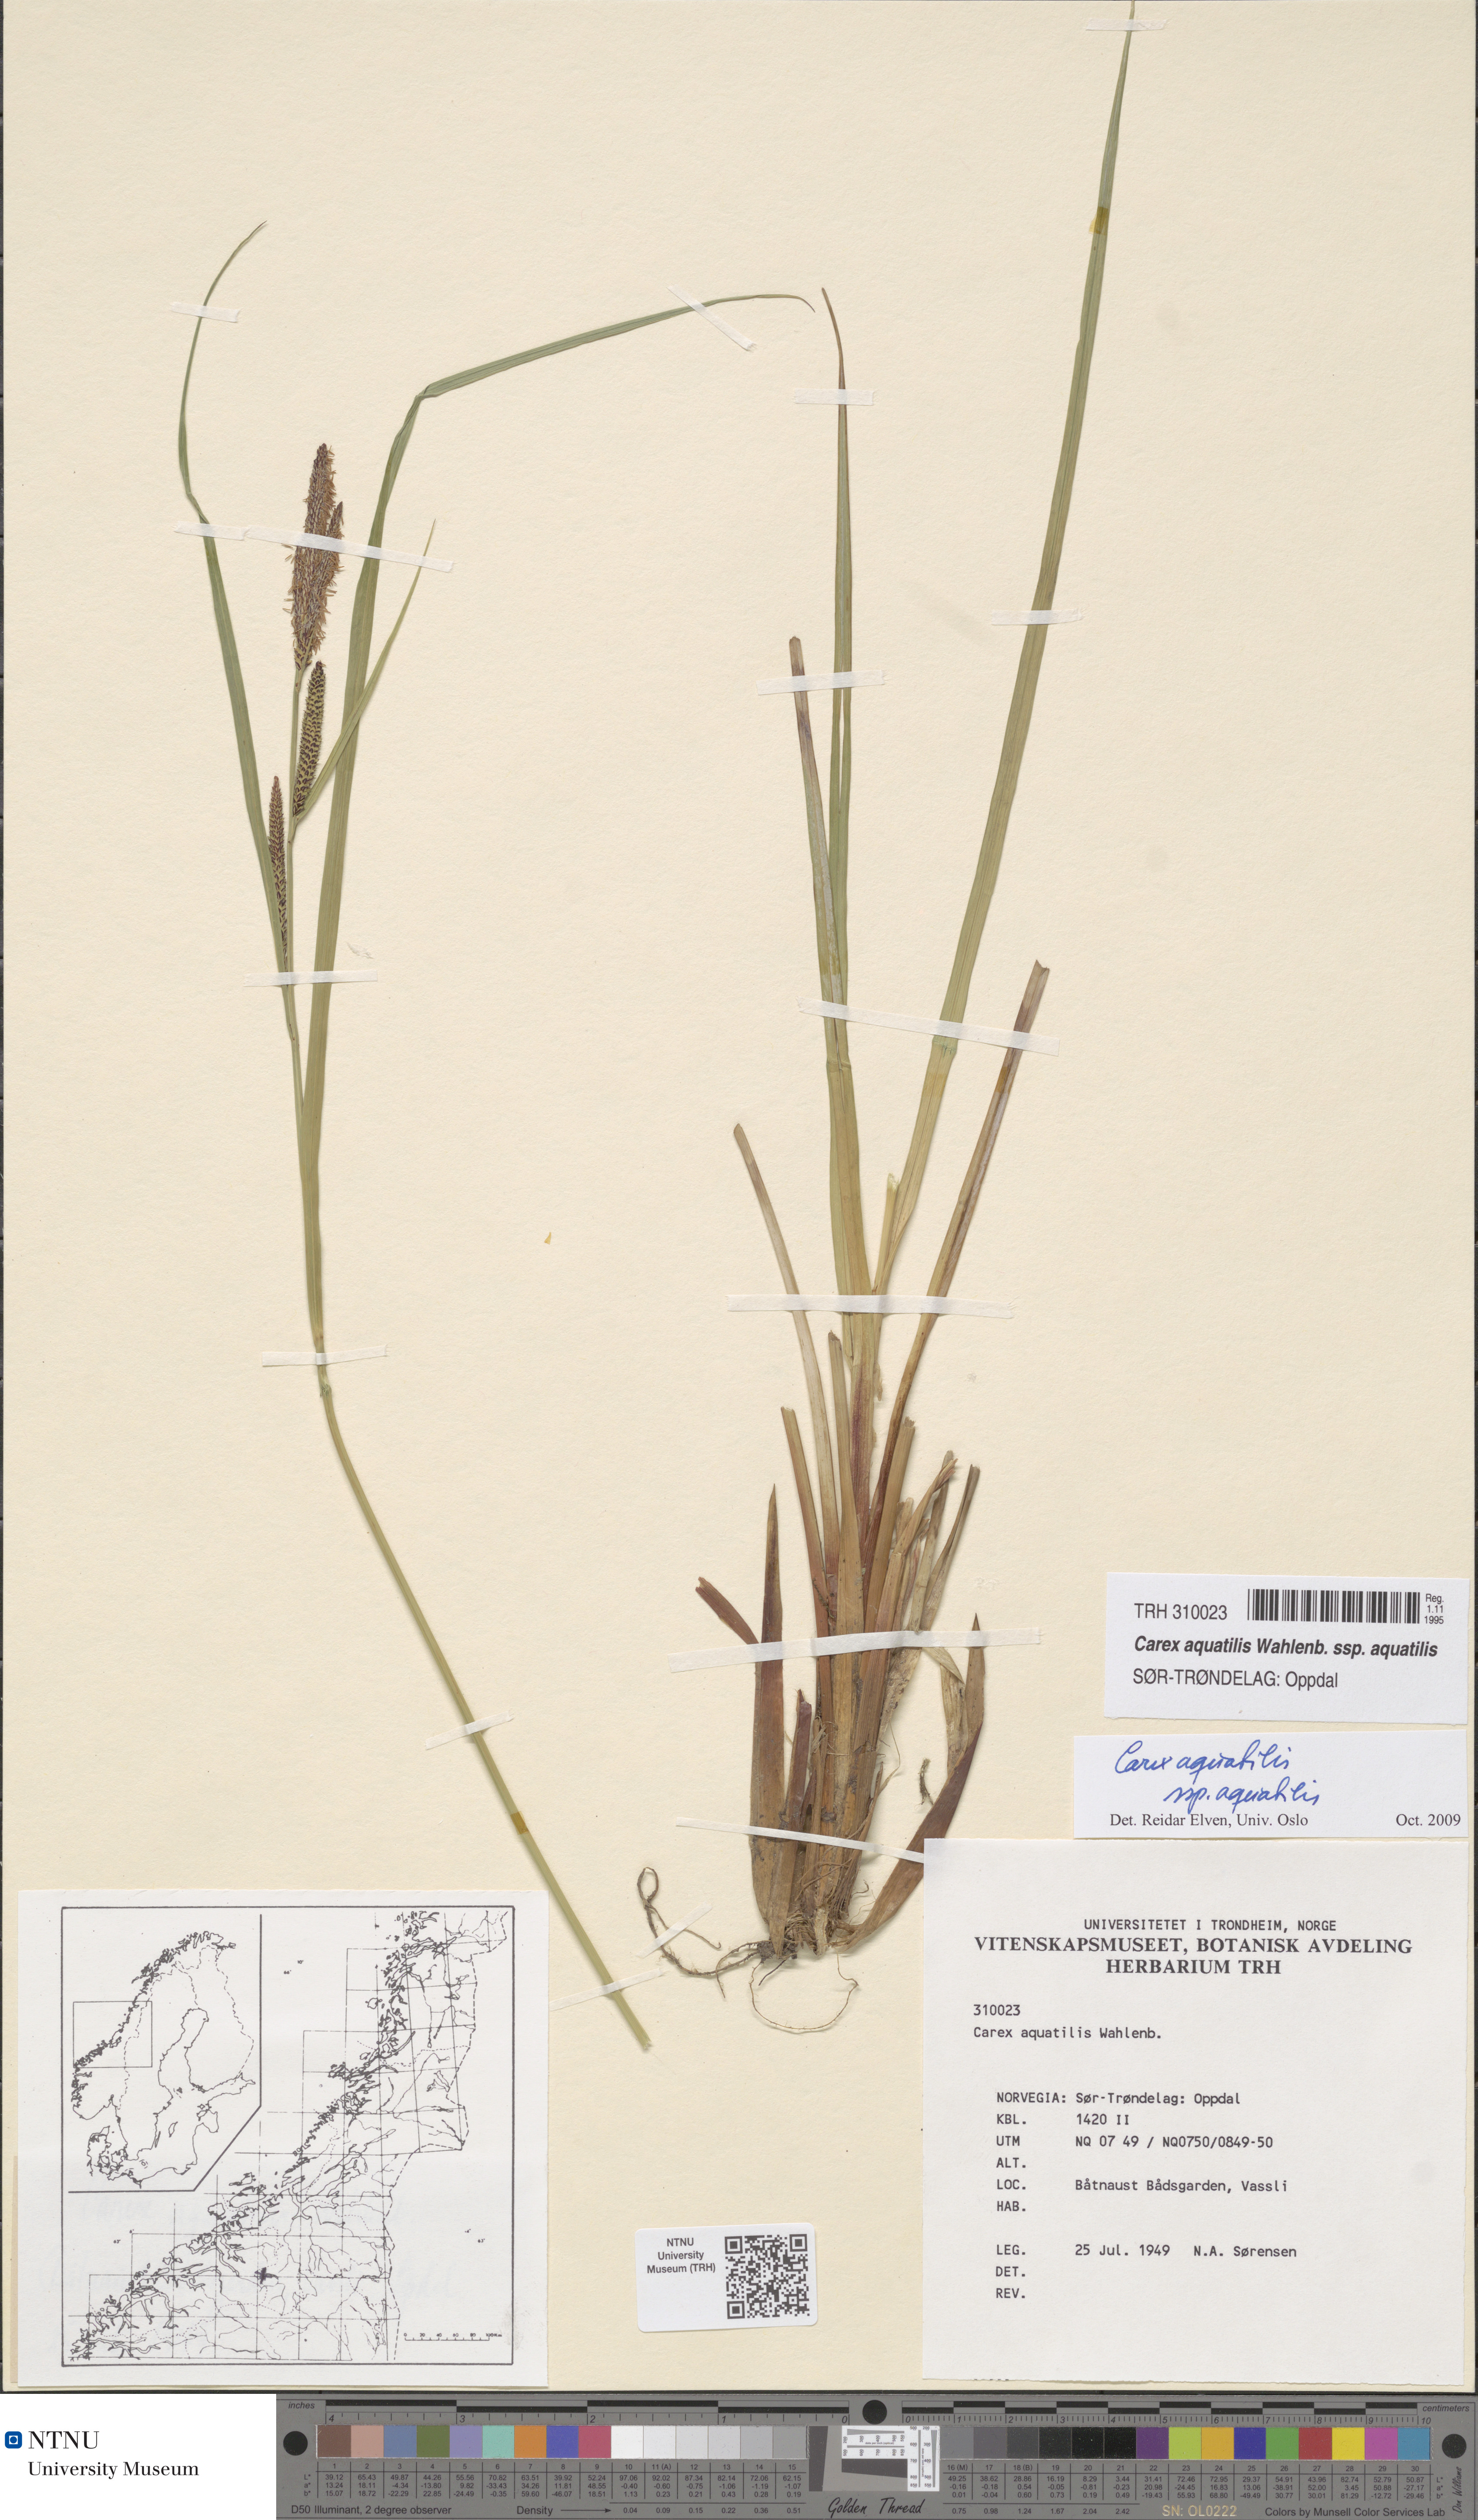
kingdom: Plantae
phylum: Tracheophyta
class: Liliopsida
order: Poales
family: Cyperaceae
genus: Carex
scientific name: Carex aquatilis
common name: Water sedge
